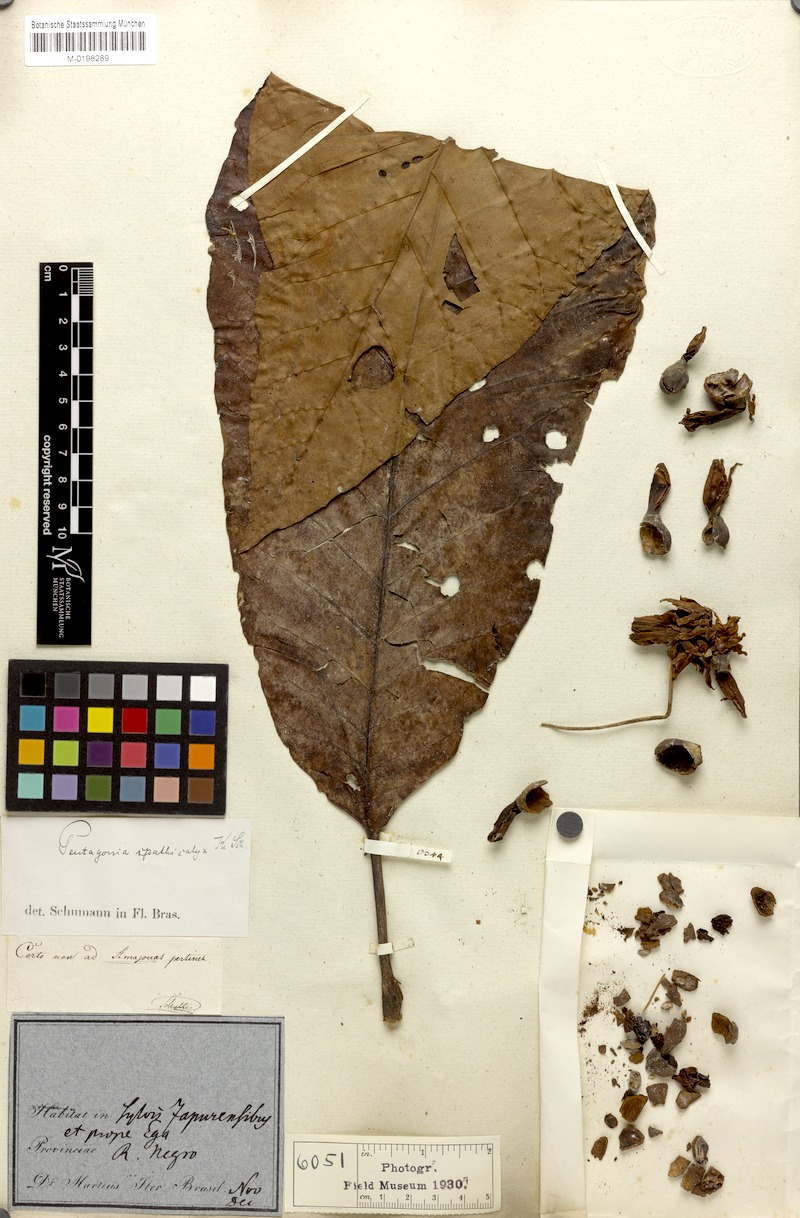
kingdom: Plantae
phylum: Tracheophyta
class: Magnoliopsida
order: Gentianales
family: Rubiaceae
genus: Pentagonia
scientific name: Pentagonia spathicalyx
